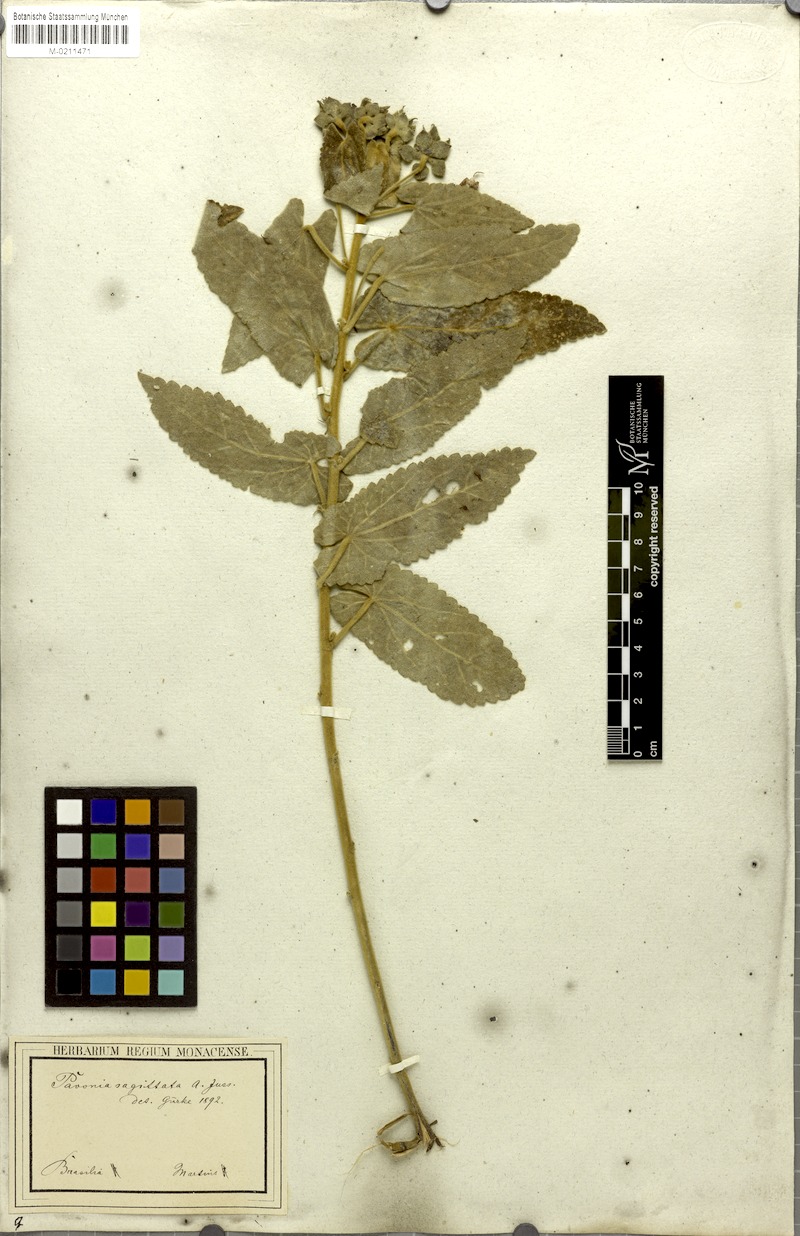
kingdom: Plantae
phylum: Tracheophyta
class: Magnoliopsida
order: Malvales
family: Malvaceae
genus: Pavonia
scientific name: Pavonia sagittata
